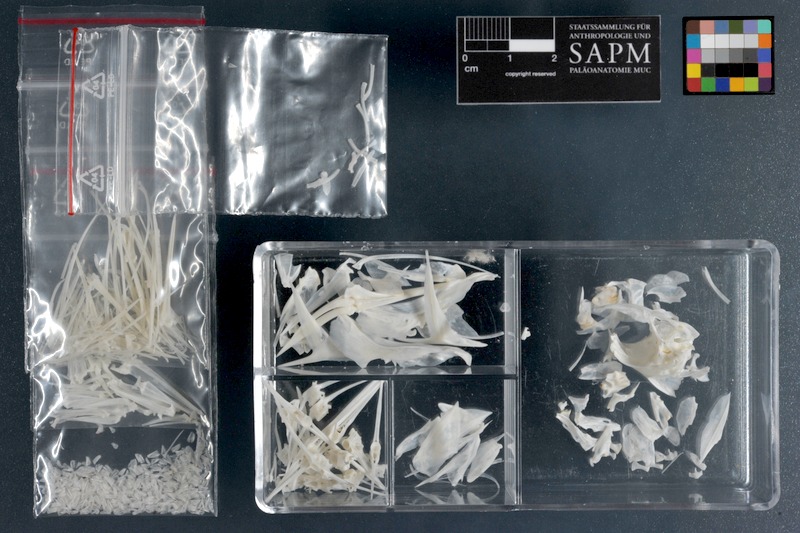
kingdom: Animalia
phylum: Chordata
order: Perciformes
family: Pomacanthidae
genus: Pomacanthus
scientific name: Pomacanthus imperator
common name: Emperor angelfish
